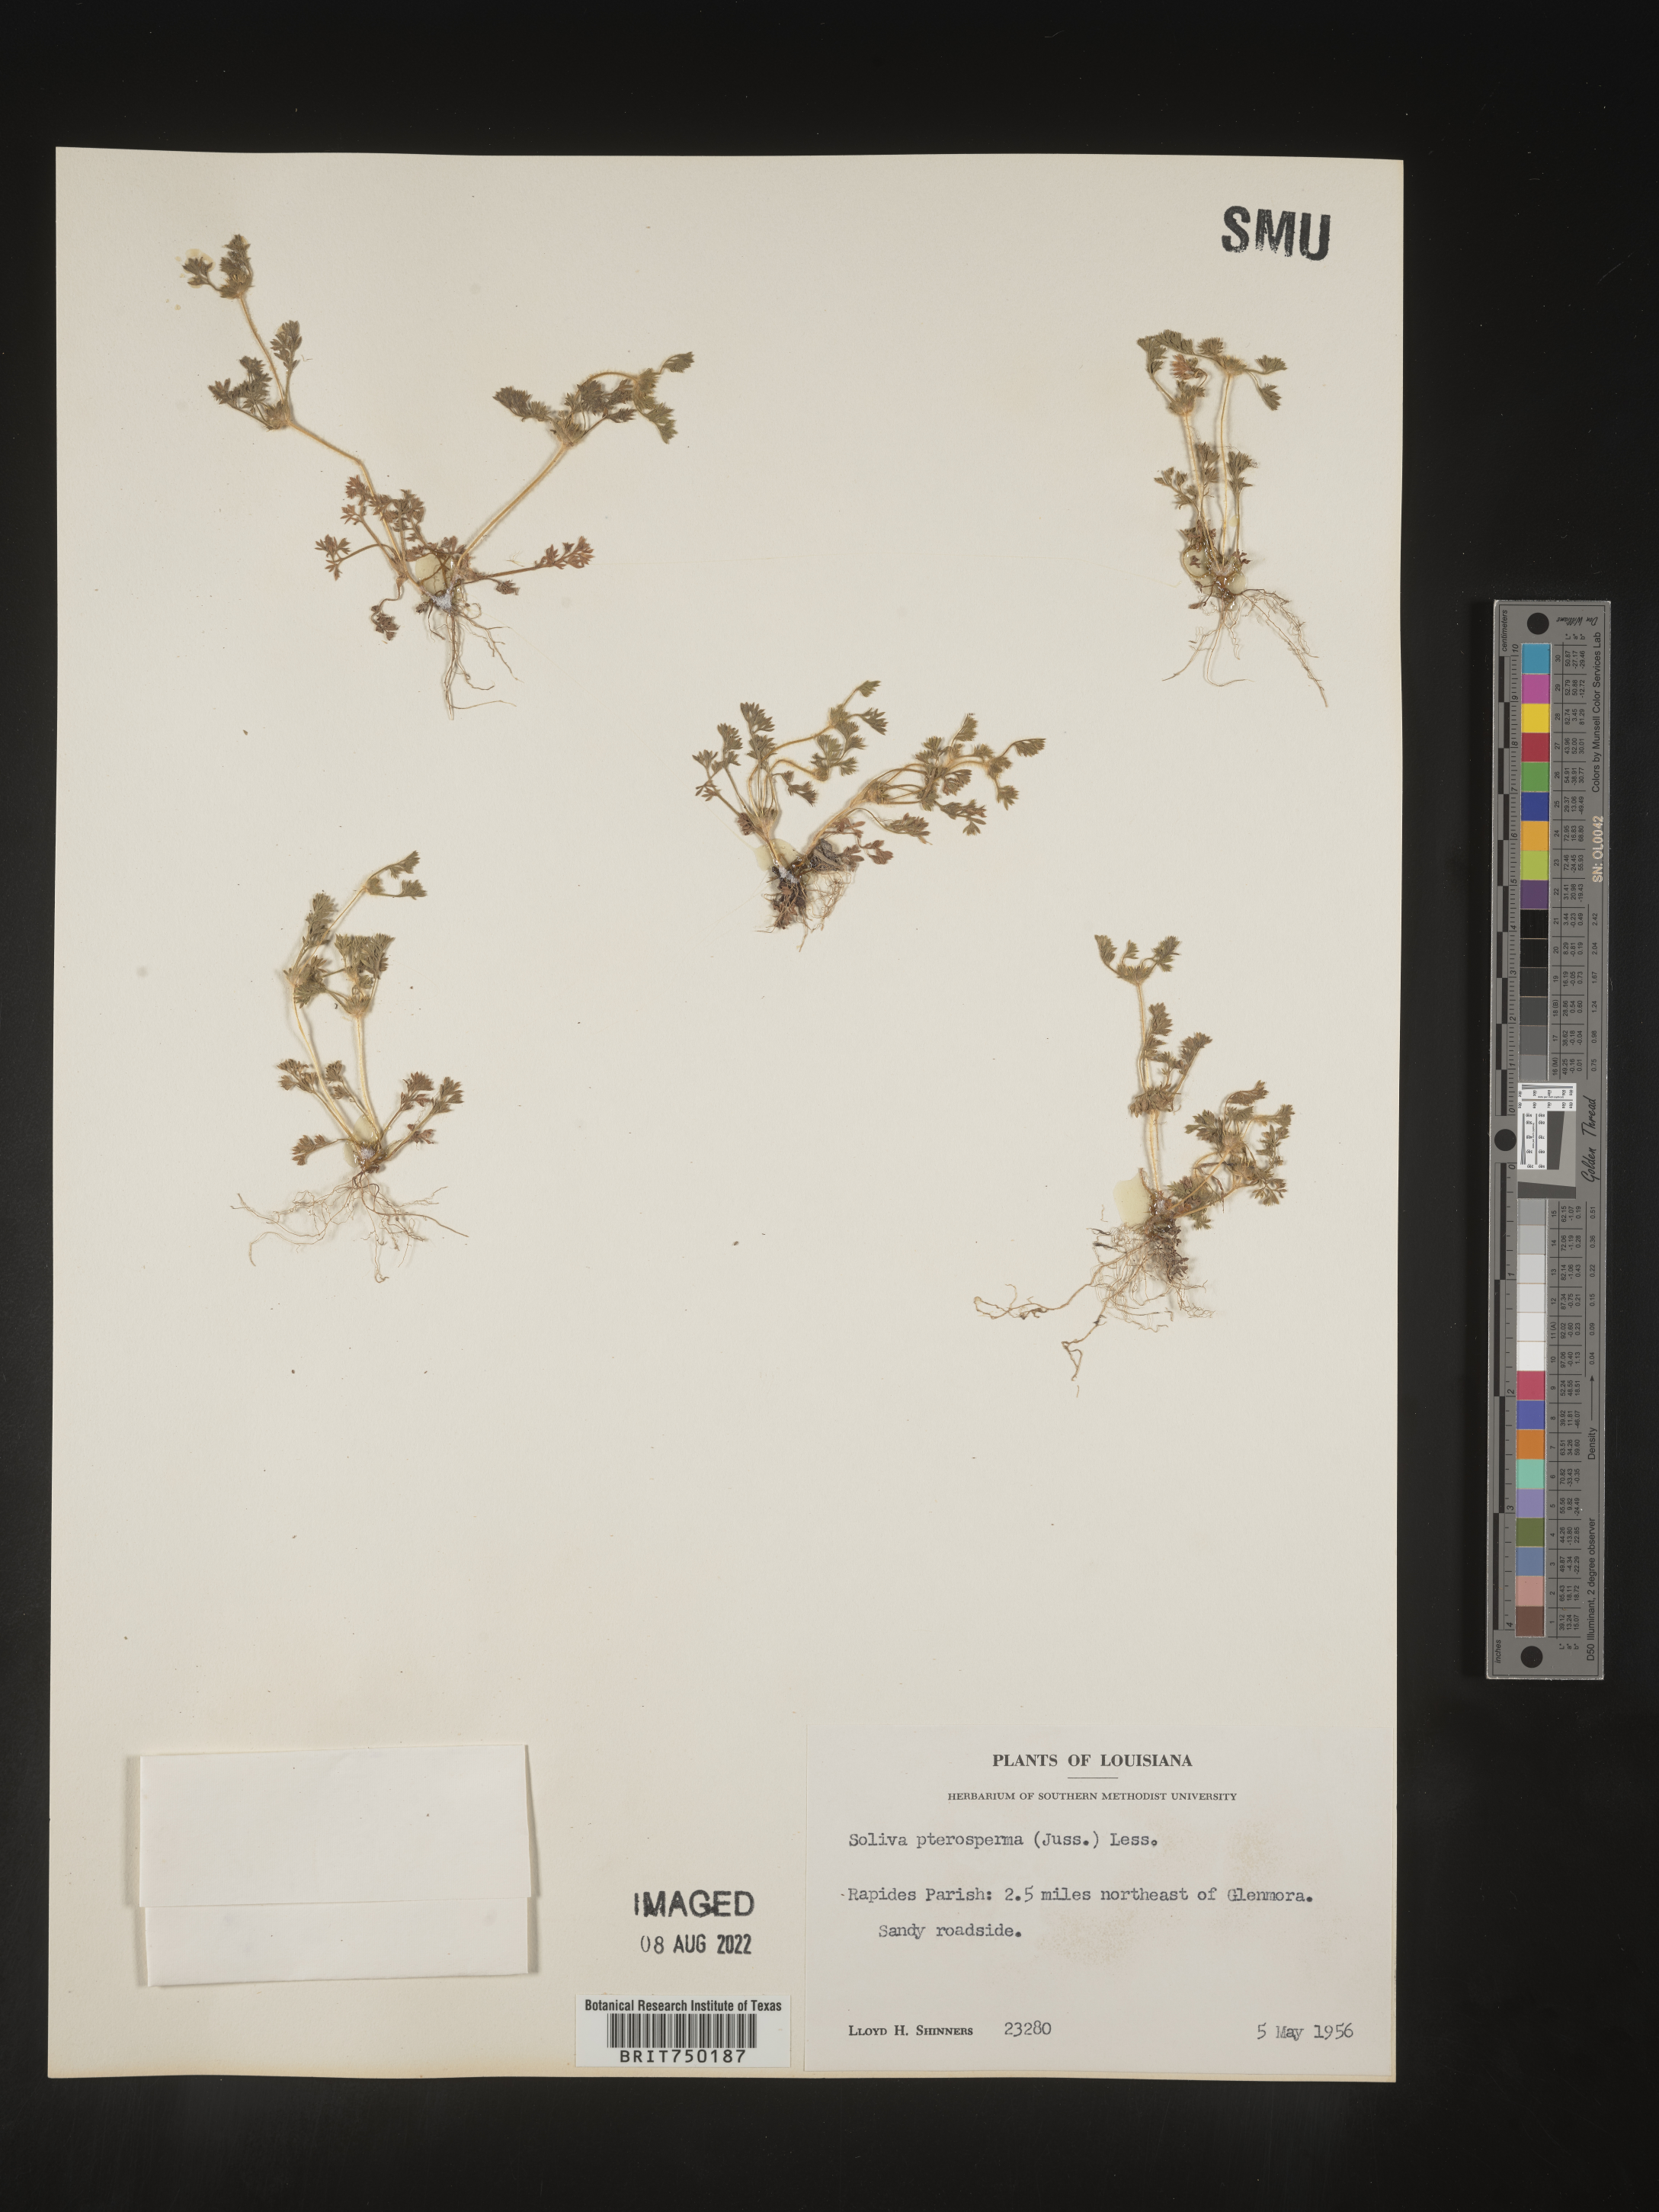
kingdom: Plantae
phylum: Tracheophyta
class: Magnoliopsida
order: Asterales
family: Asteraceae
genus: Soliva
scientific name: Soliva sessilis
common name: Field burrweed
